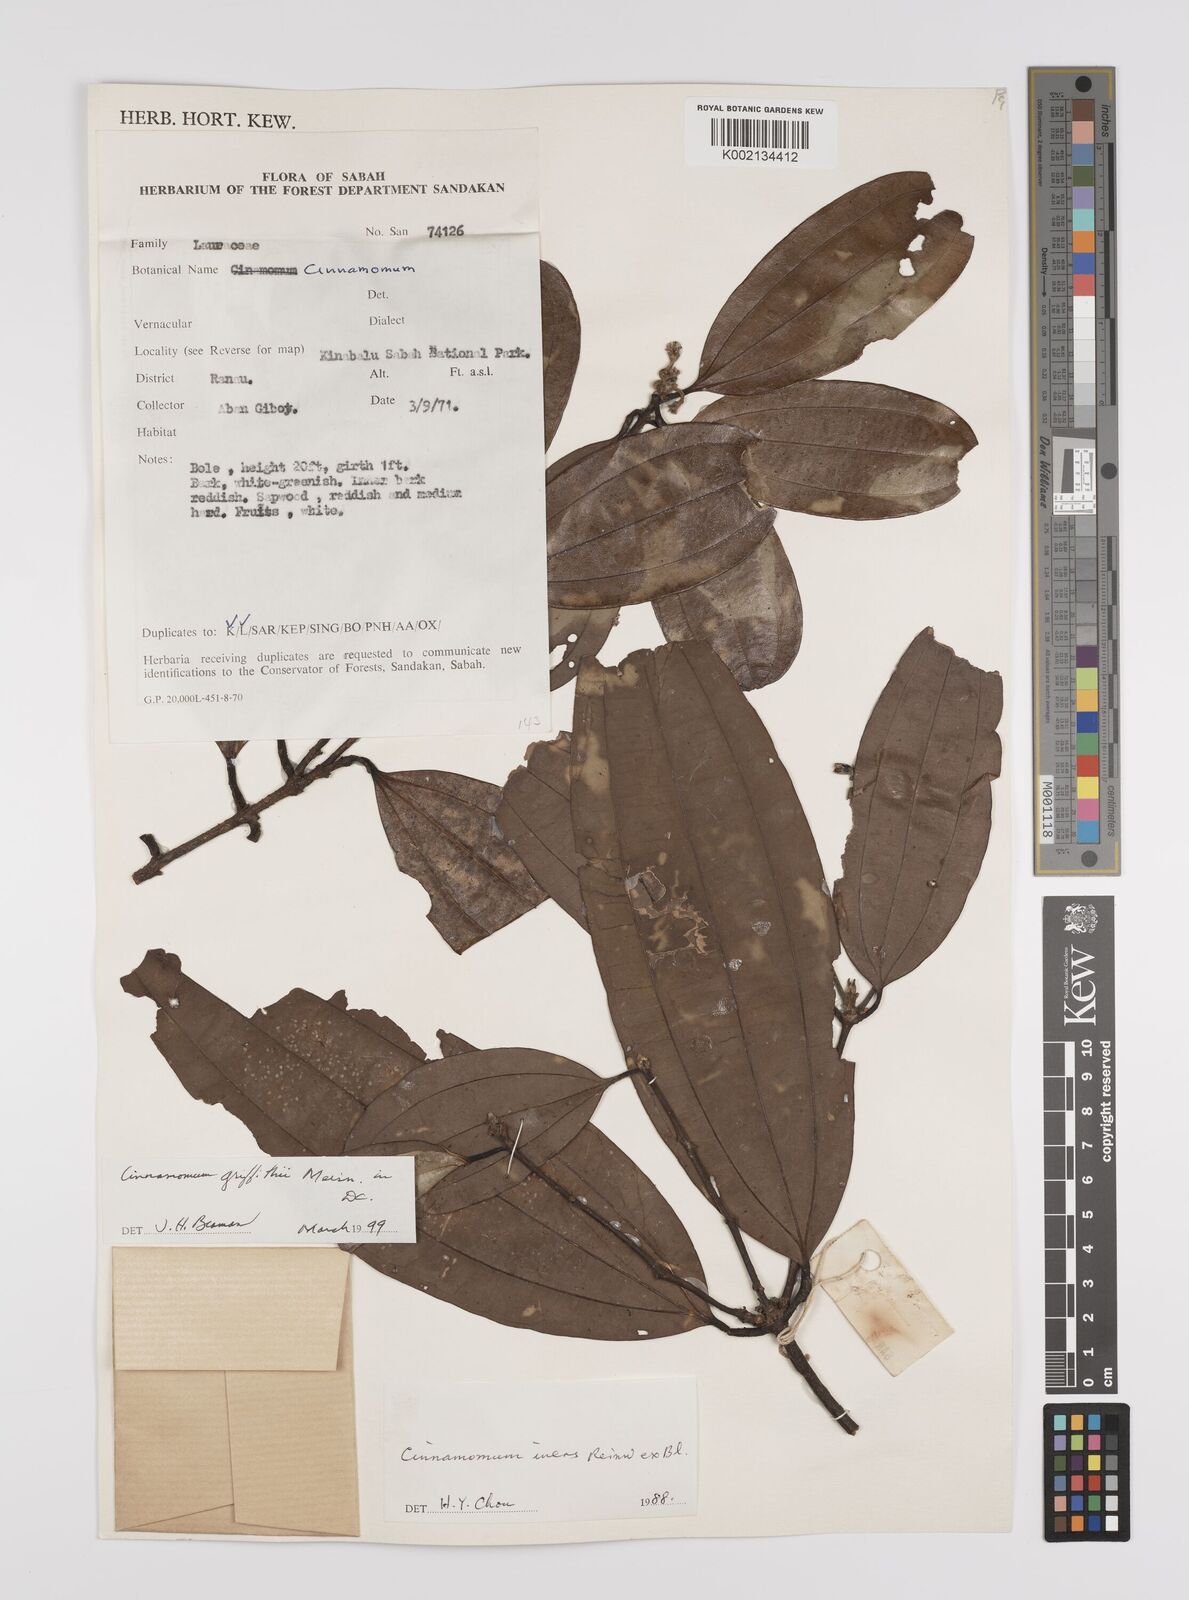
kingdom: Plantae
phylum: Tracheophyta
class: Magnoliopsida
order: Laurales
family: Lauraceae
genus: Cinnamomum
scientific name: Cinnamomum iners
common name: Wild cinnamon
